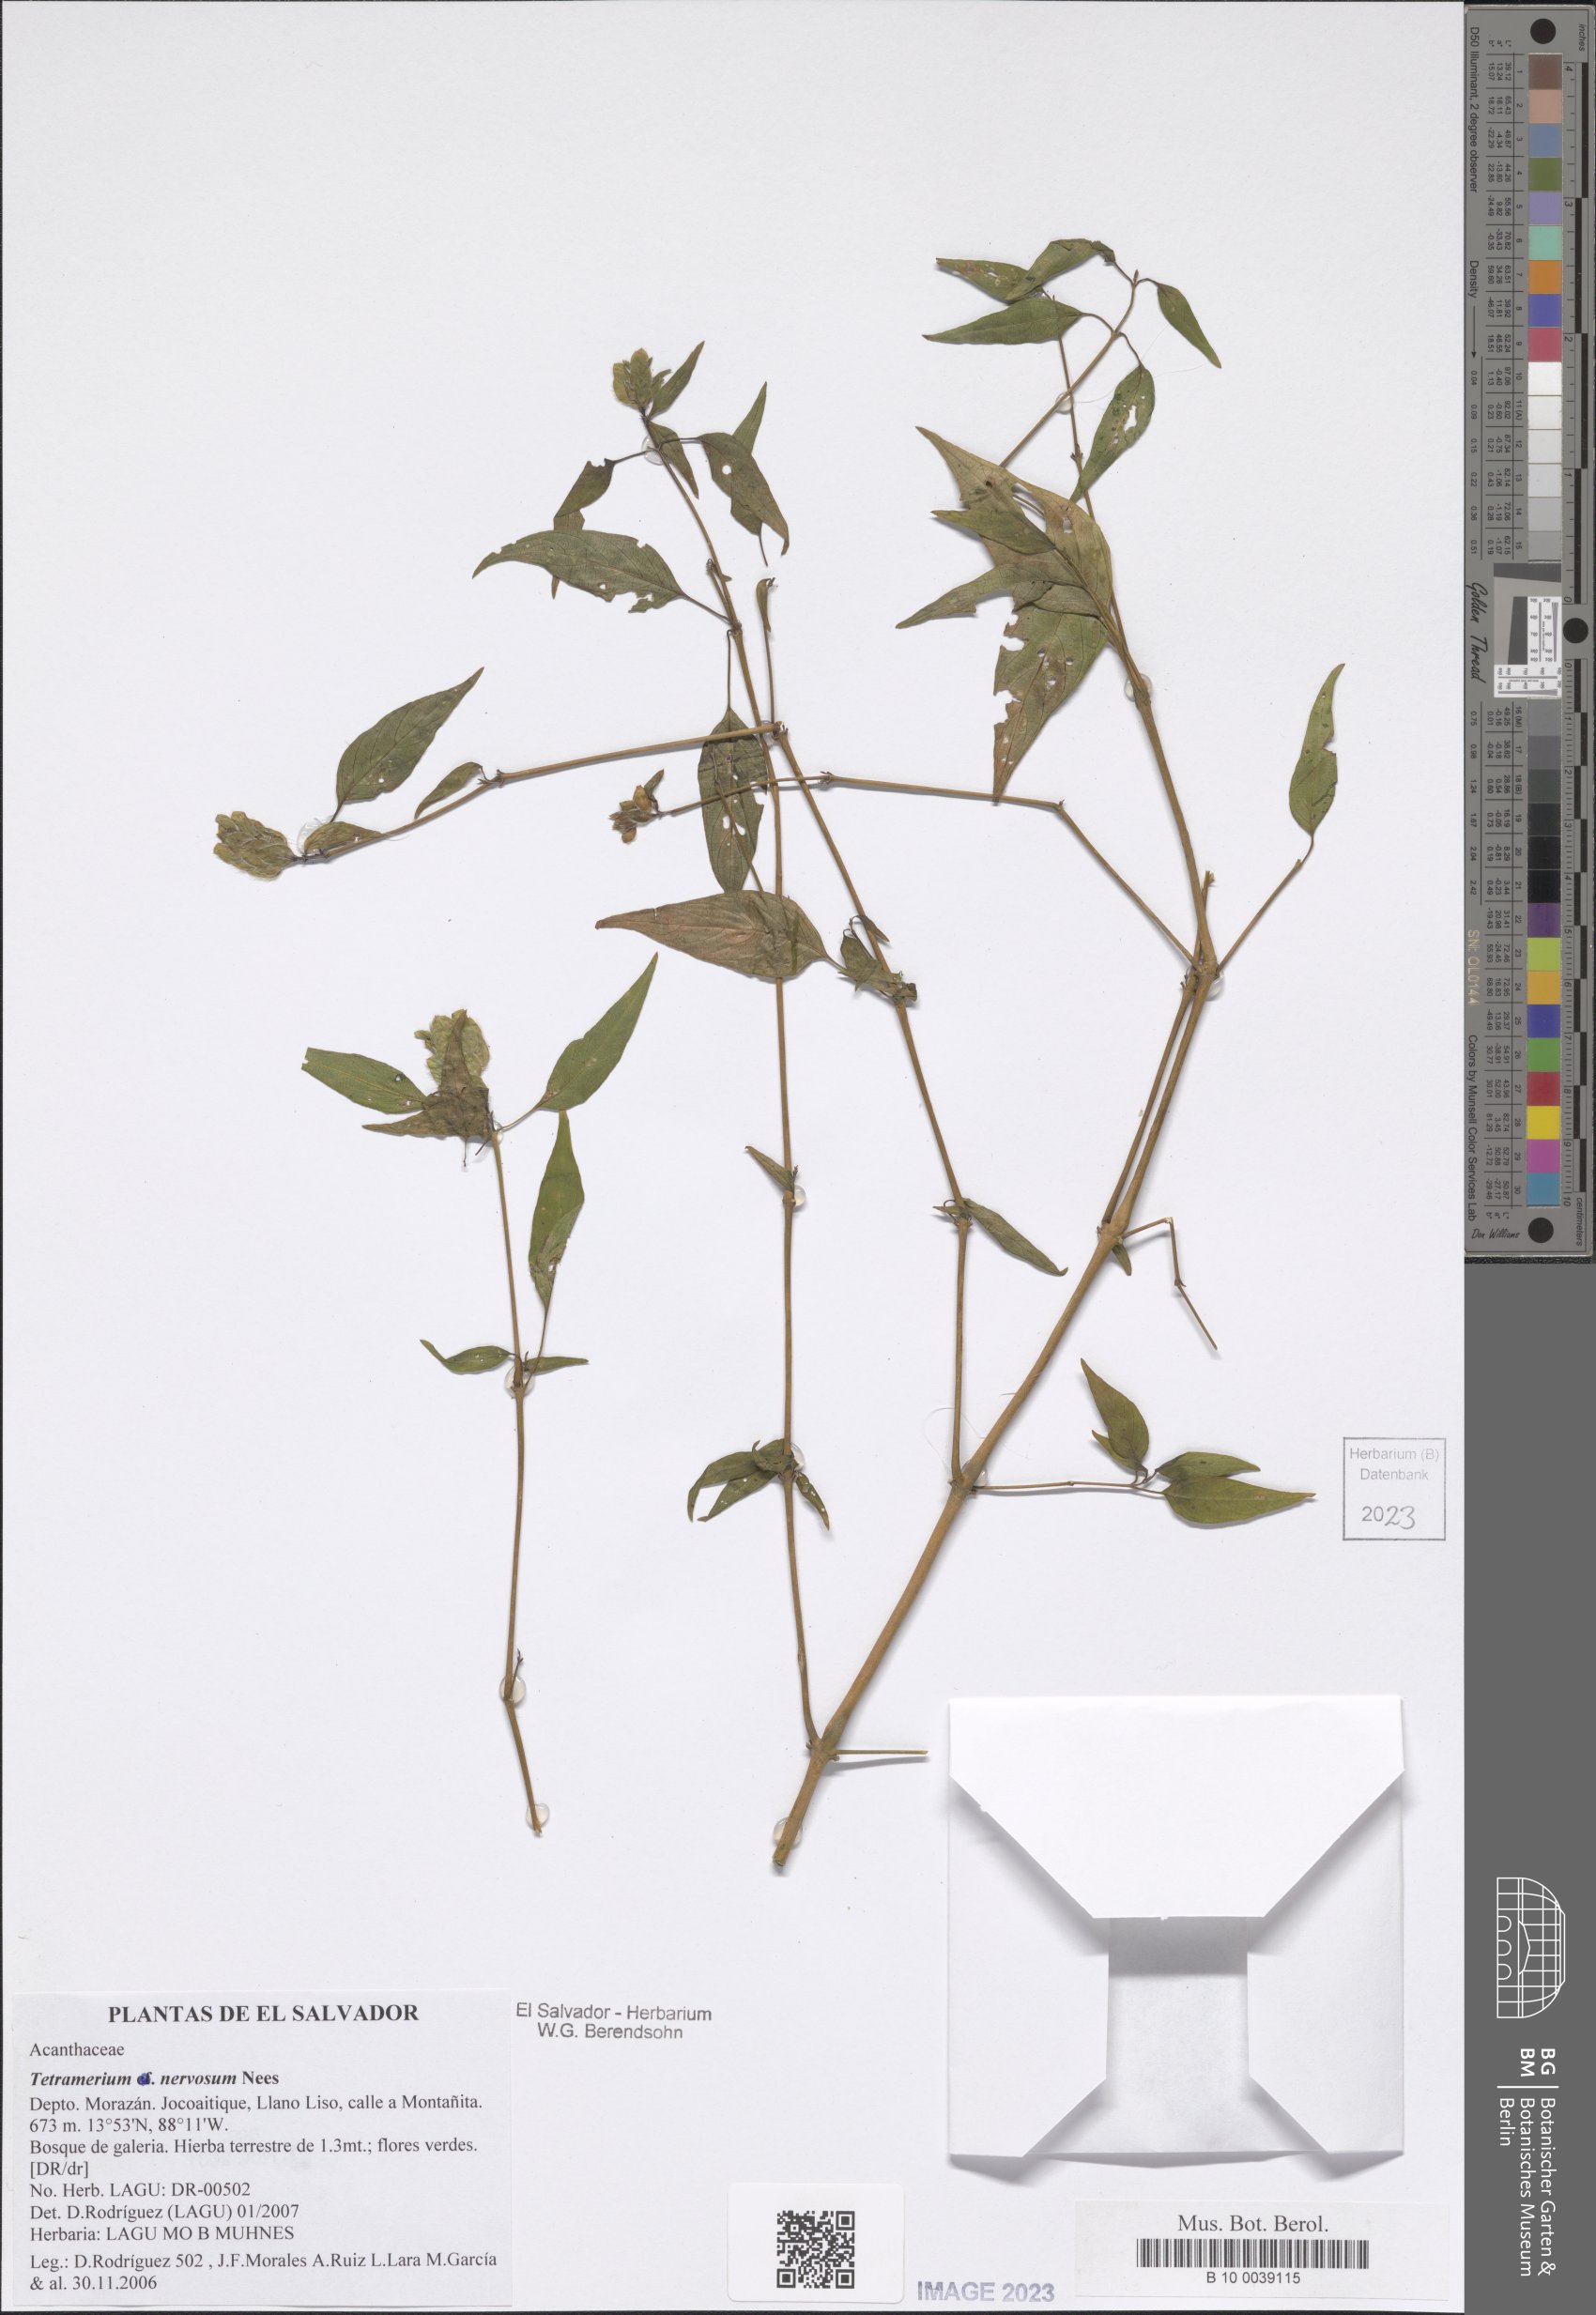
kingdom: Plantae
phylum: Tracheophyta
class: Magnoliopsida
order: Lamiales
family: Acanthaceae
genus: Tetramerium
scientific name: Tetramerium nervosum
